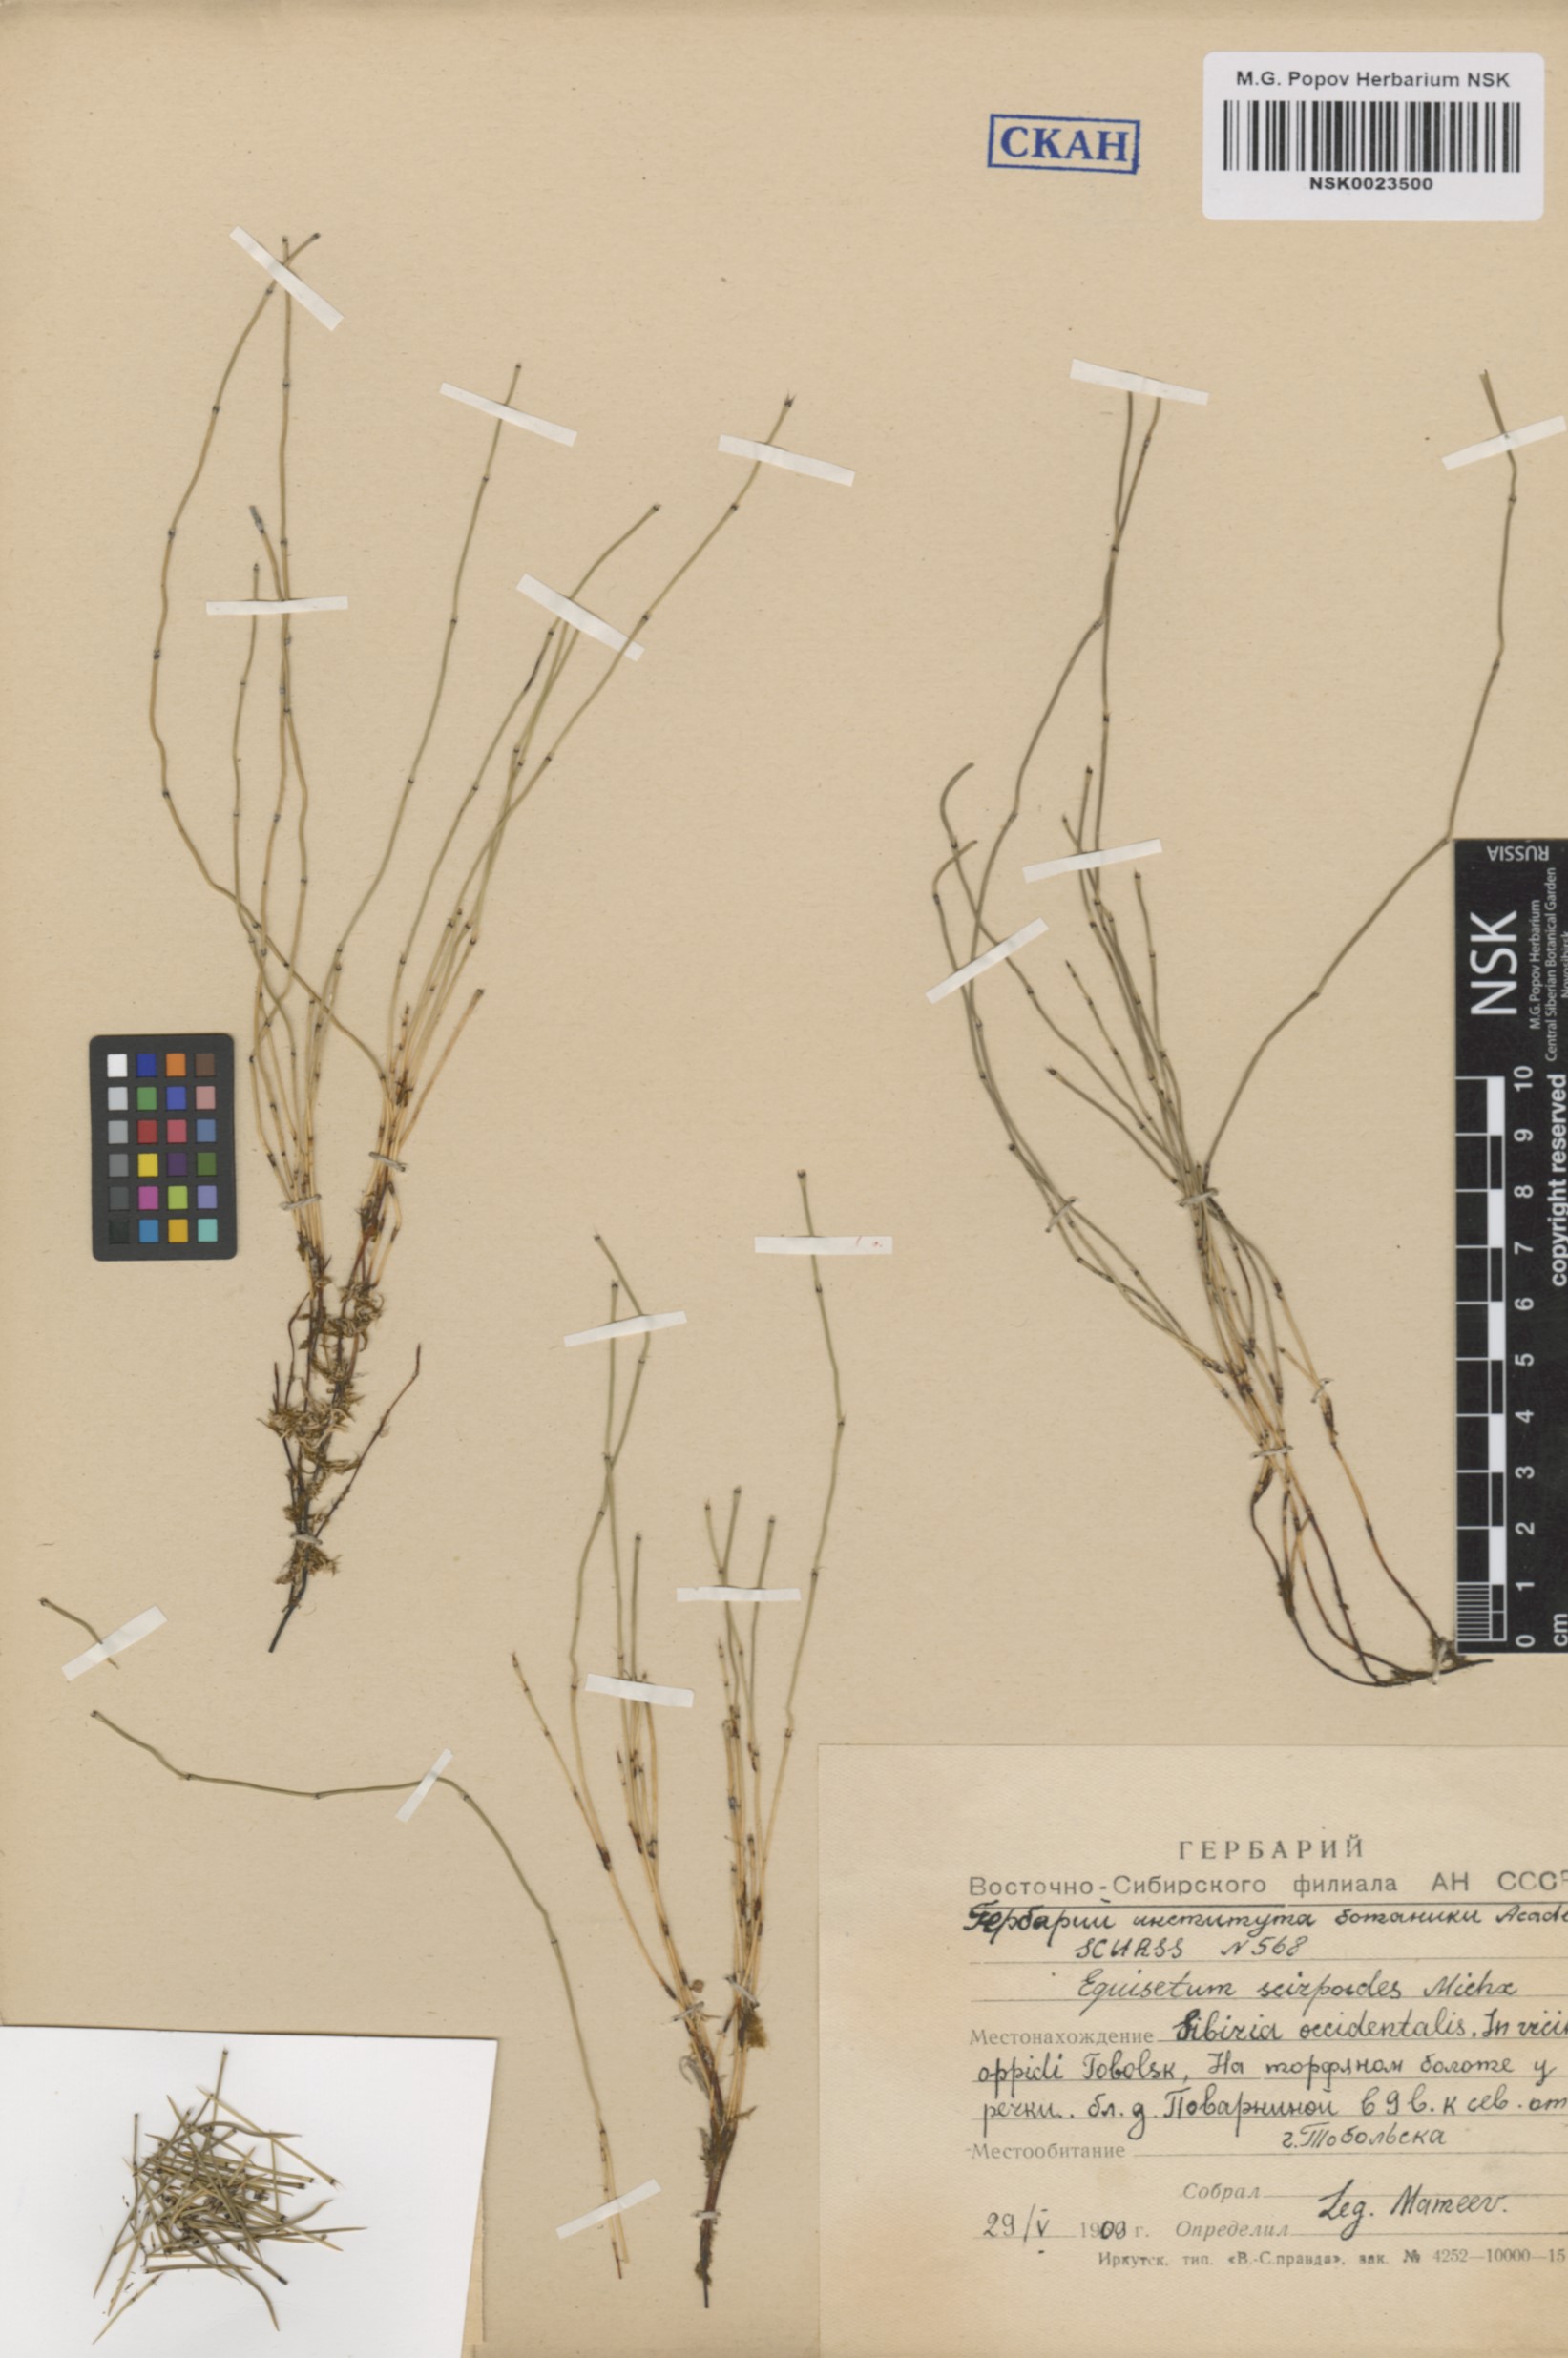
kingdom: Plantae
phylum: Tracheophyta
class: Polypodiopsida
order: Equisetales
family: Equisetaceae
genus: Equisetum
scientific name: Equisetum scirpoides
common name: Delicate horsetail
